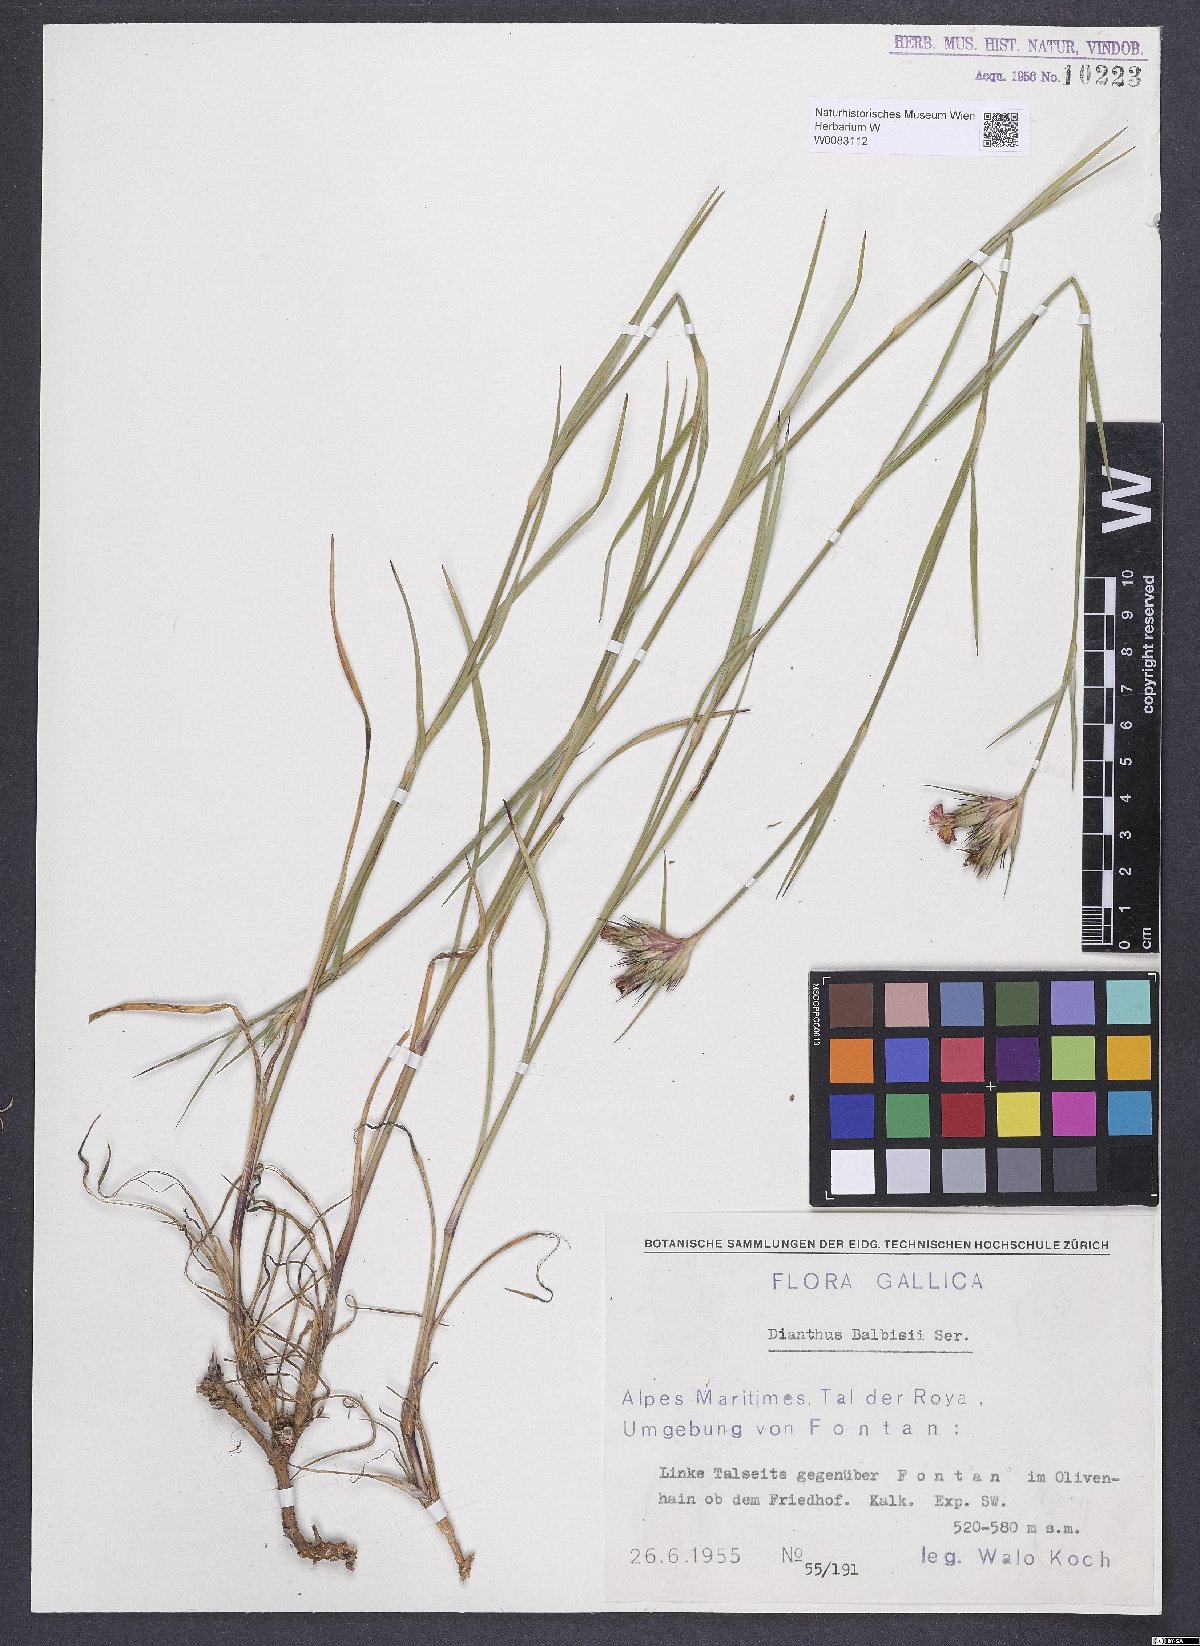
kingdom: Plantae
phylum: Tracheophyta
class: Magnoliopsida
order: Caryophyllales
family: Caryophyllaceae
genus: Dianthus
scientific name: Dianthus crassipes
